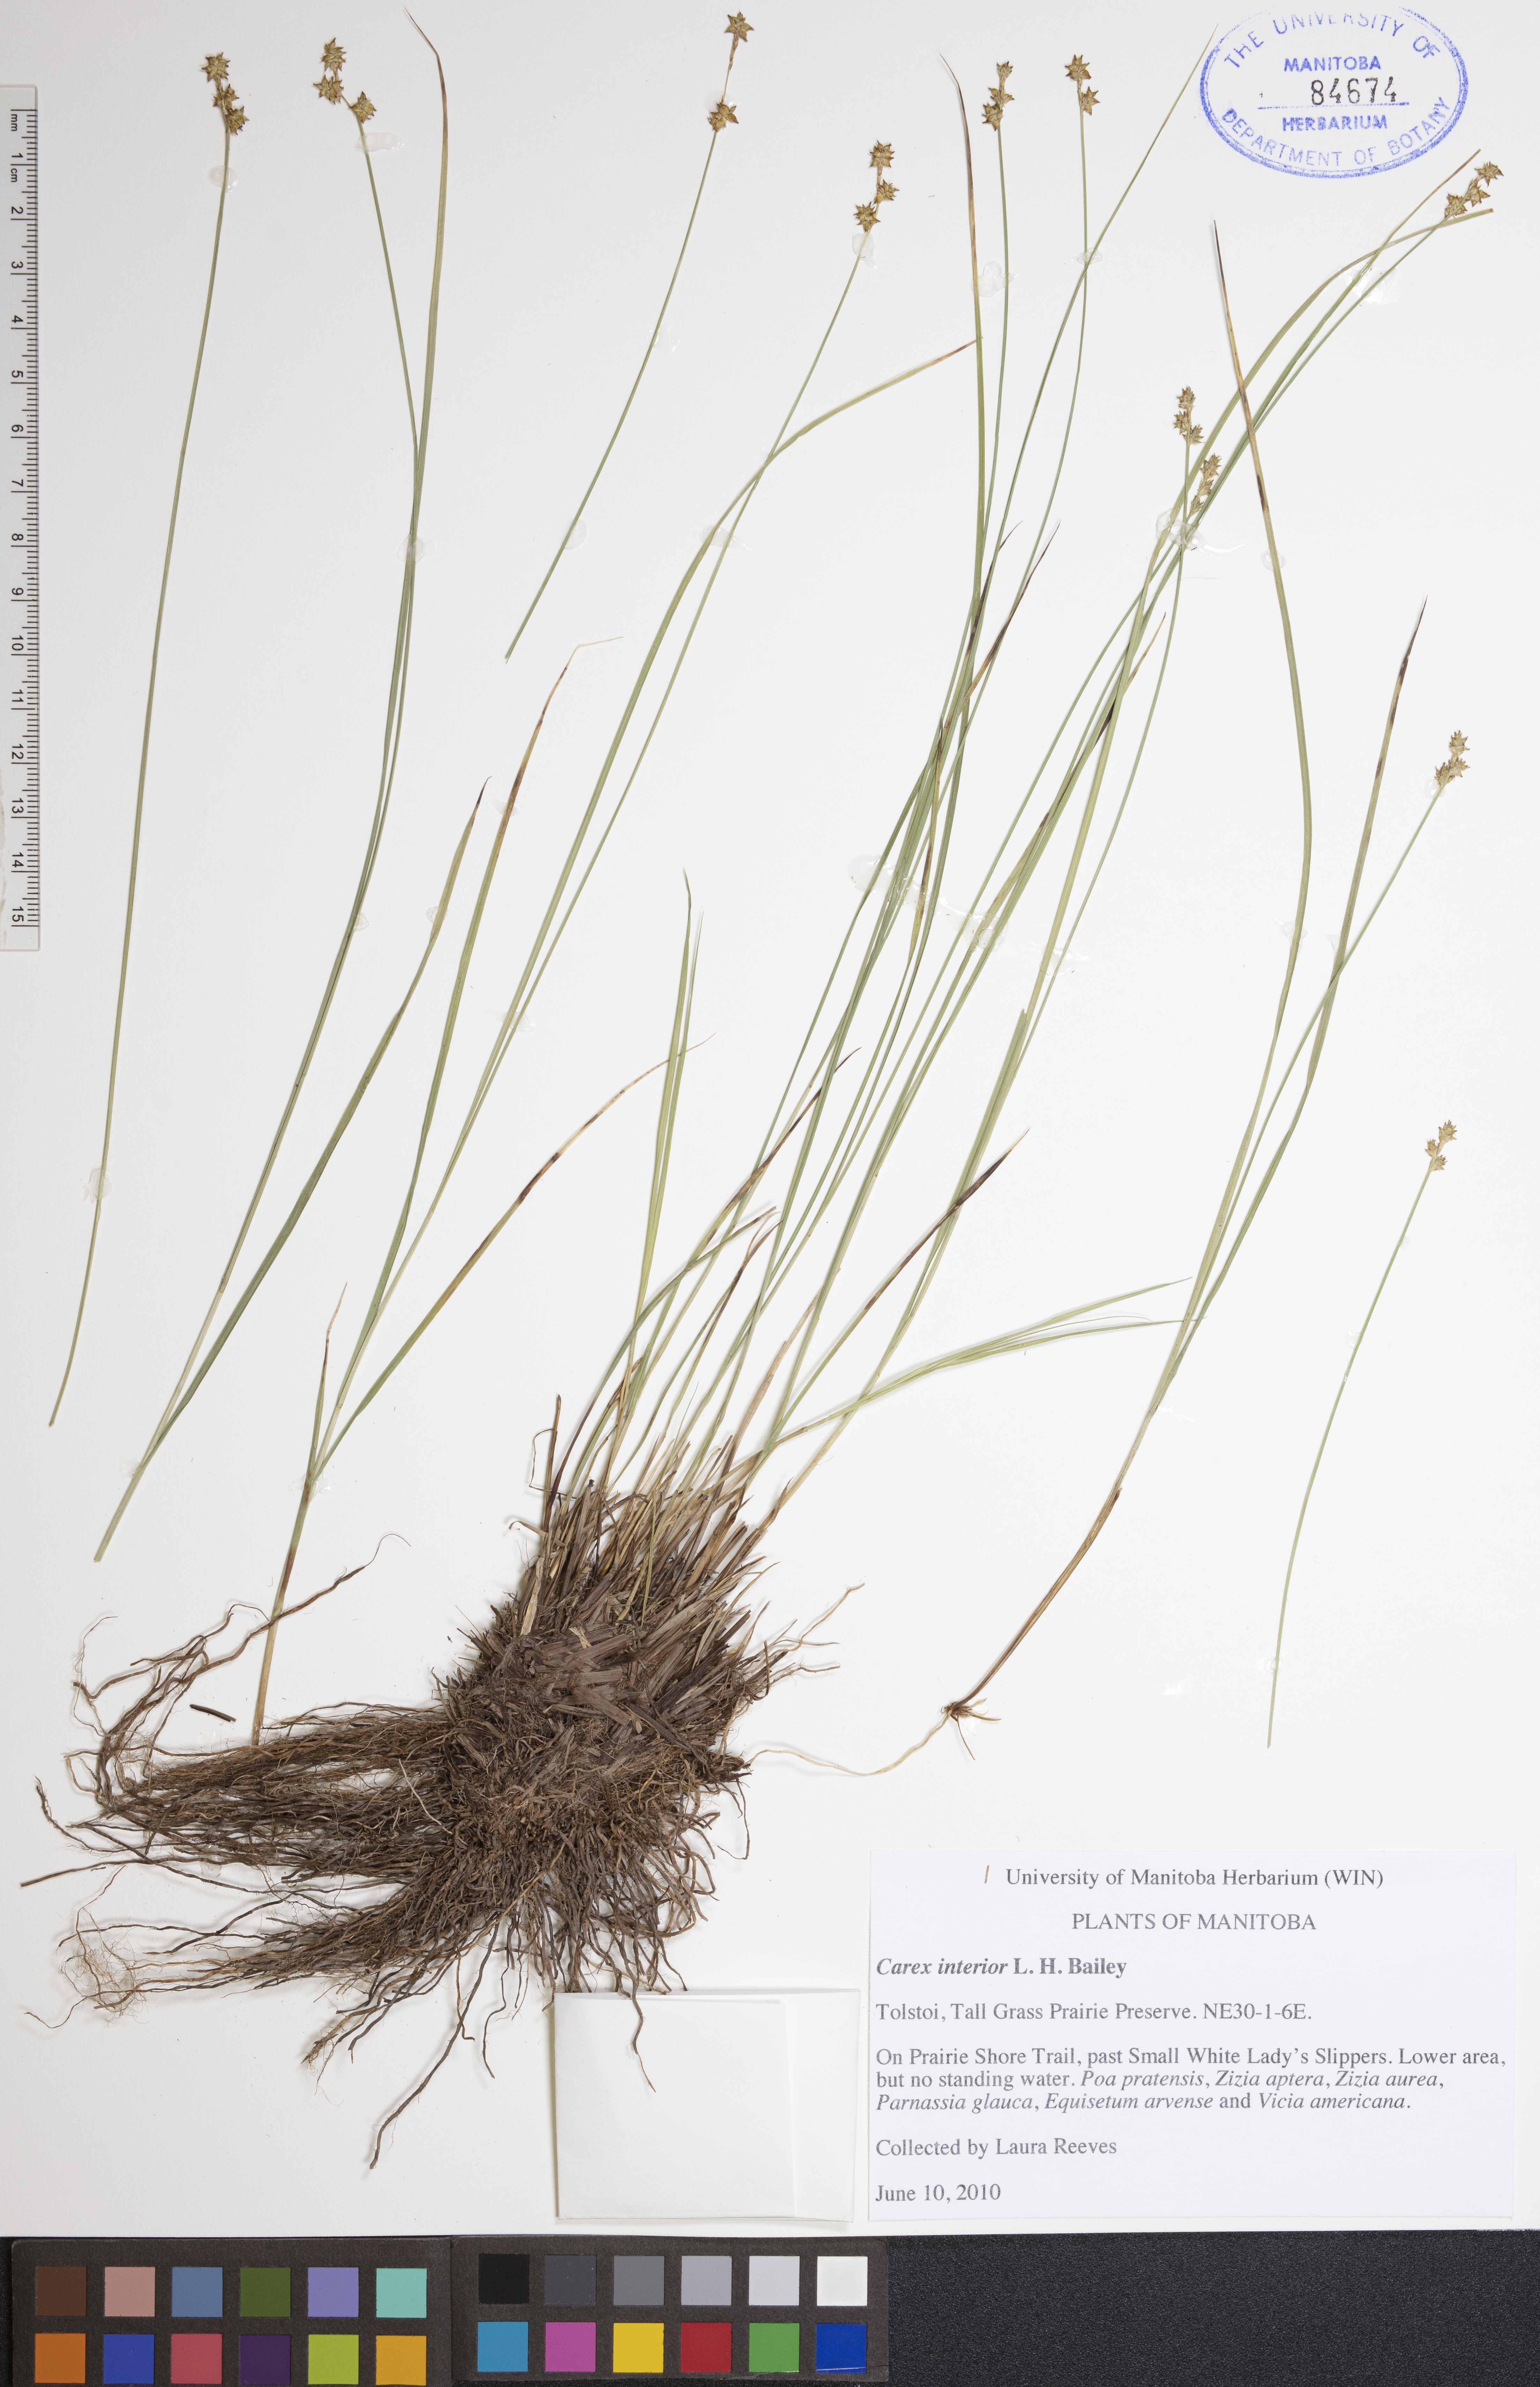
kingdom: Plantae
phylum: Tracheophyta
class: Liliopsida
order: Poales
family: Cyperaceae
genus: Carex
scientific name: Carex interior
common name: Inland sedge
